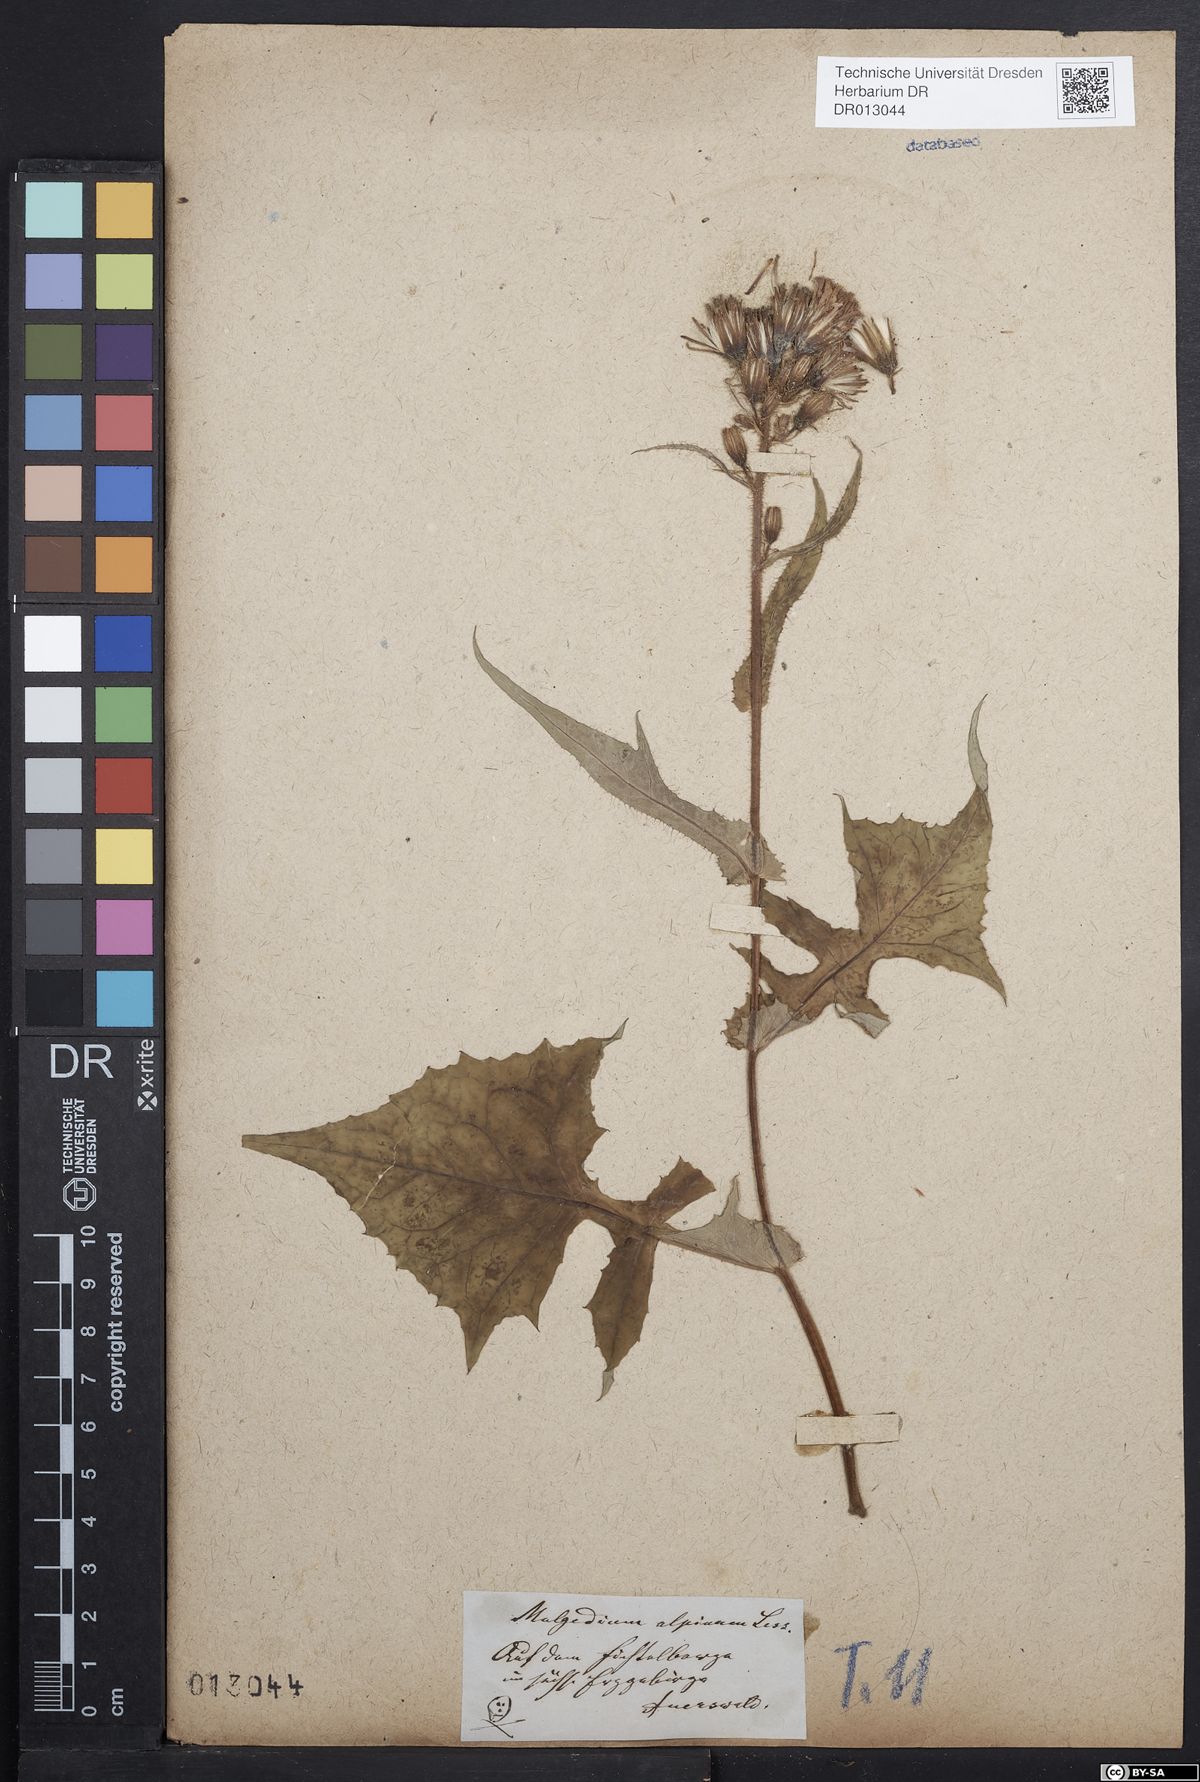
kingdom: Plantae
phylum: Tracheophyta
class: Magnoliopsida
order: Asterales
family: Asteraceae
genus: Cicerbita
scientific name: Cicerbita alpina
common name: Alpine blue-sow-thistle
